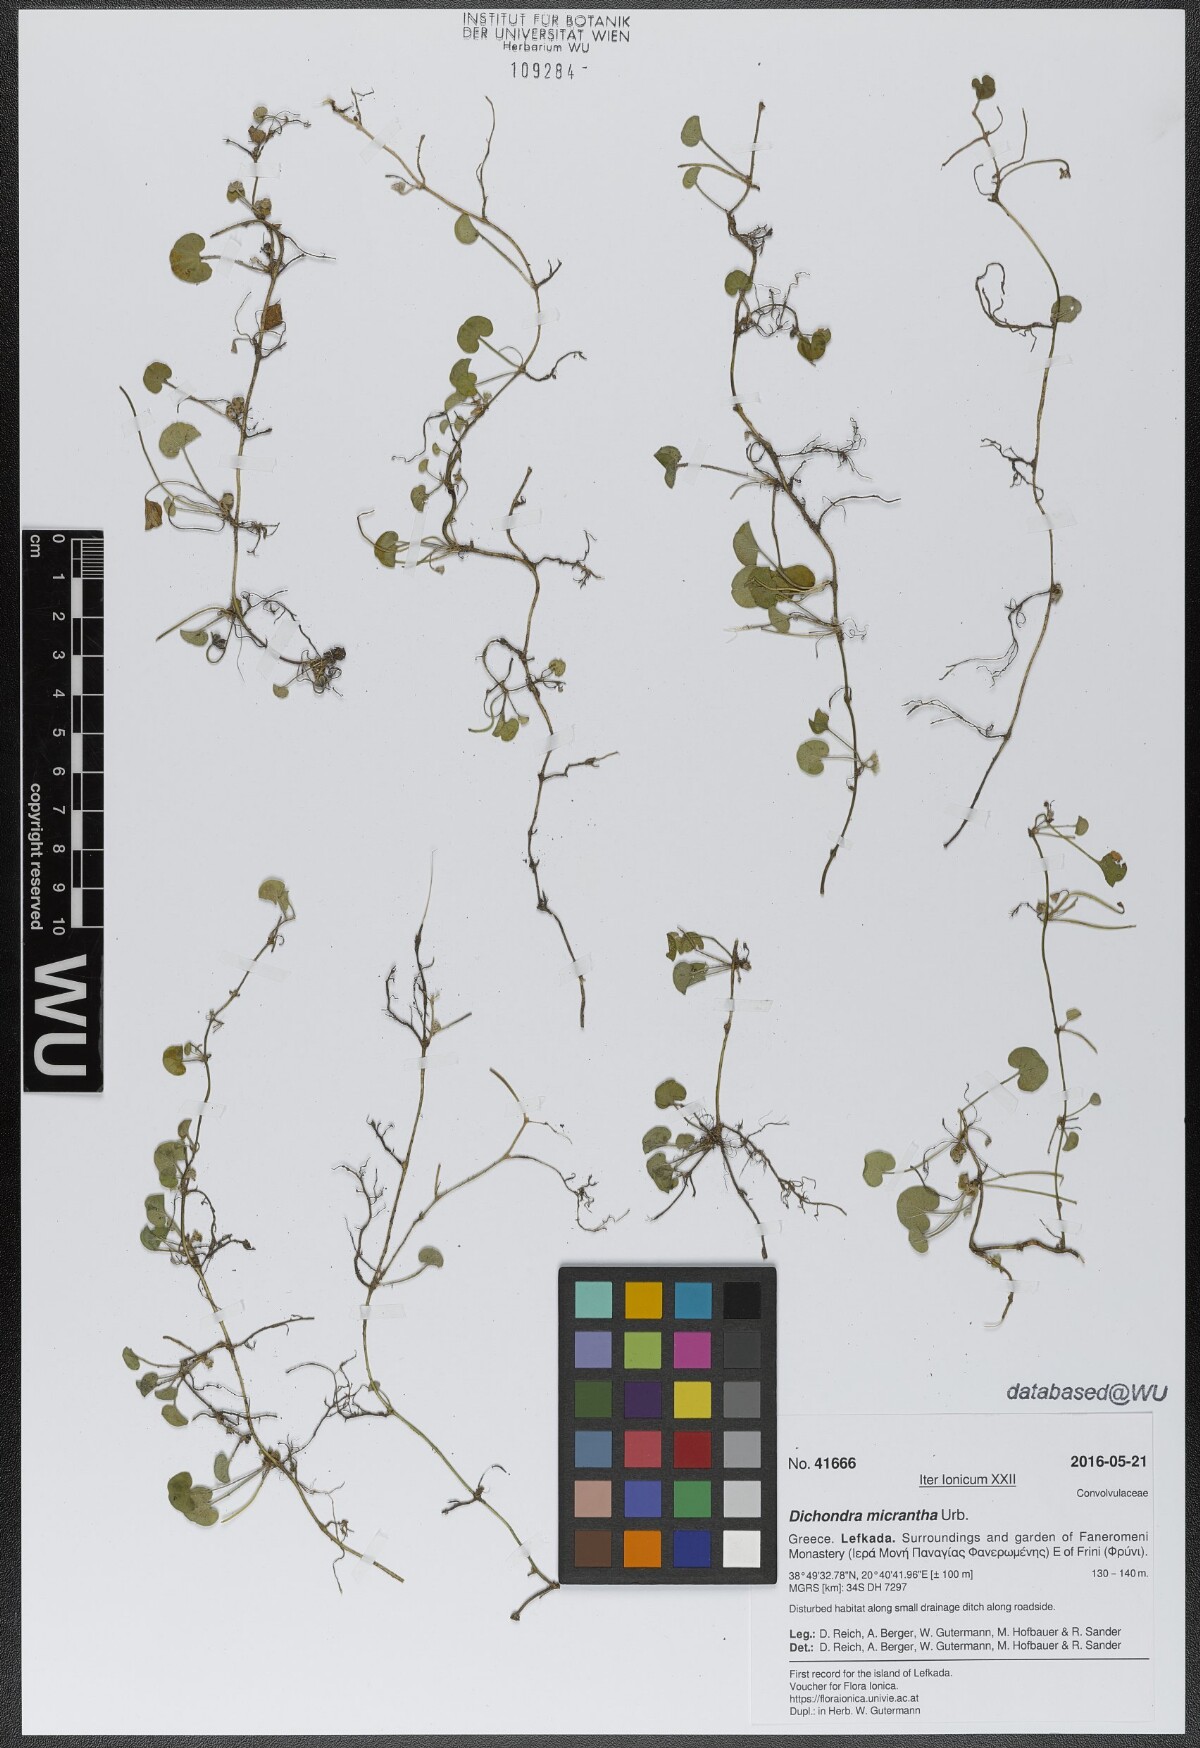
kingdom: Plantae
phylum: Tracheophyta
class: Magnoliopsida
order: Solanales
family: Convolvulaceae
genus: Dichondra
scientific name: Dichondra micrantha
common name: Kidneyweed
